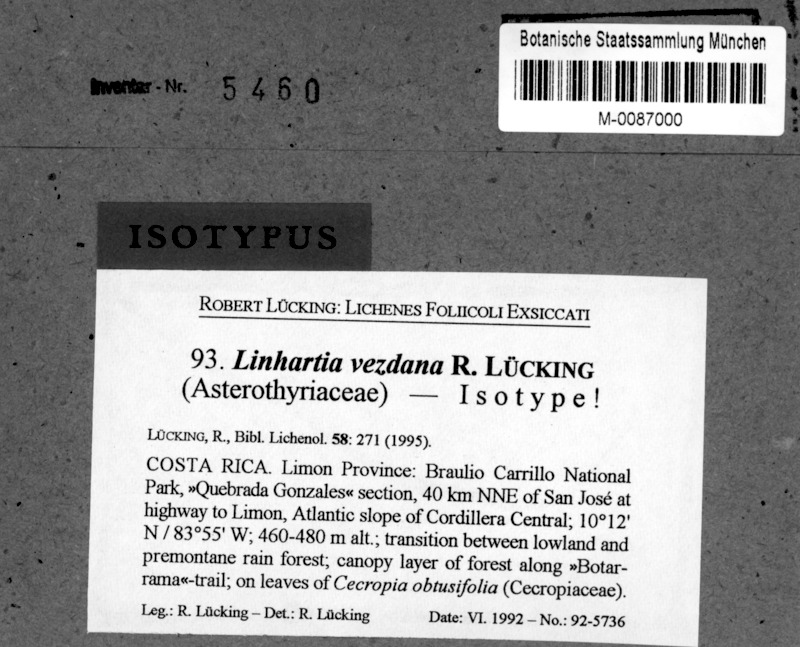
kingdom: Fungi
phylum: Ascomycota
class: Lecanoromycetes
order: Ostropales
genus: Linhartia
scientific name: Linhartia
